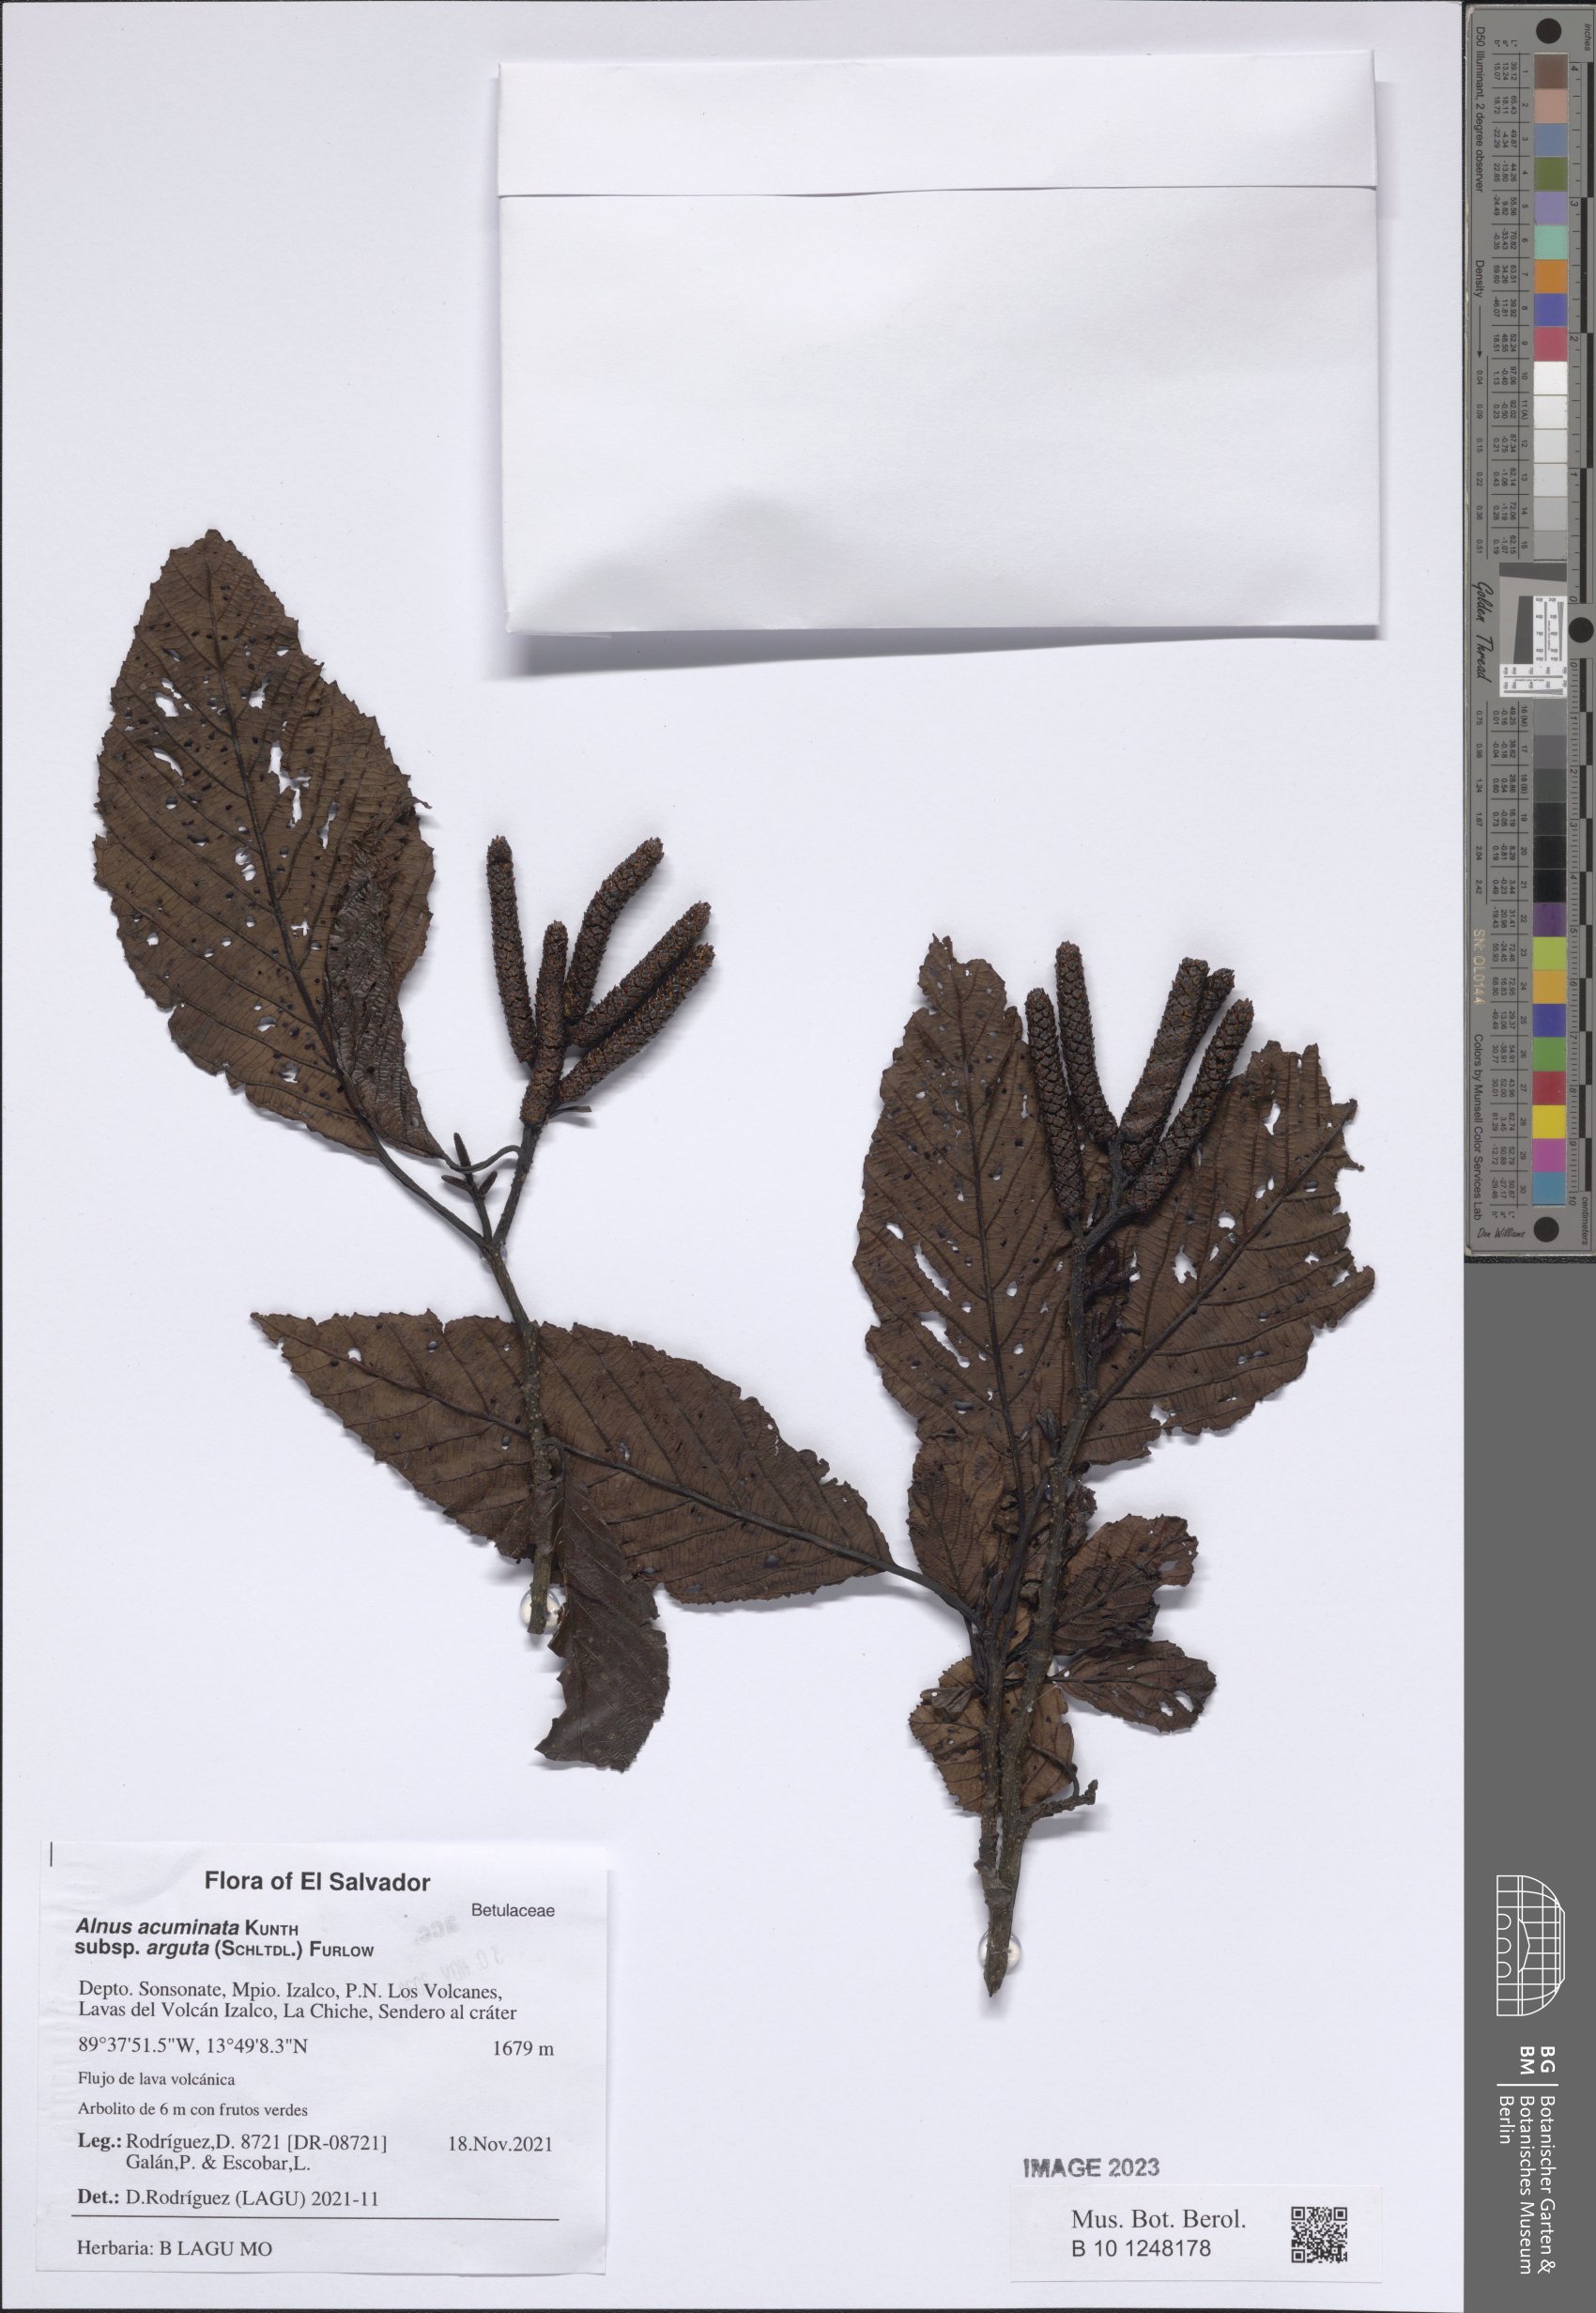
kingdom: Plantae
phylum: Tracheophyta
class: Magnoliopsida
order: Fagales
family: Betulaceae
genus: Alnus
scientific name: Alnus acuminata
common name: Alder
